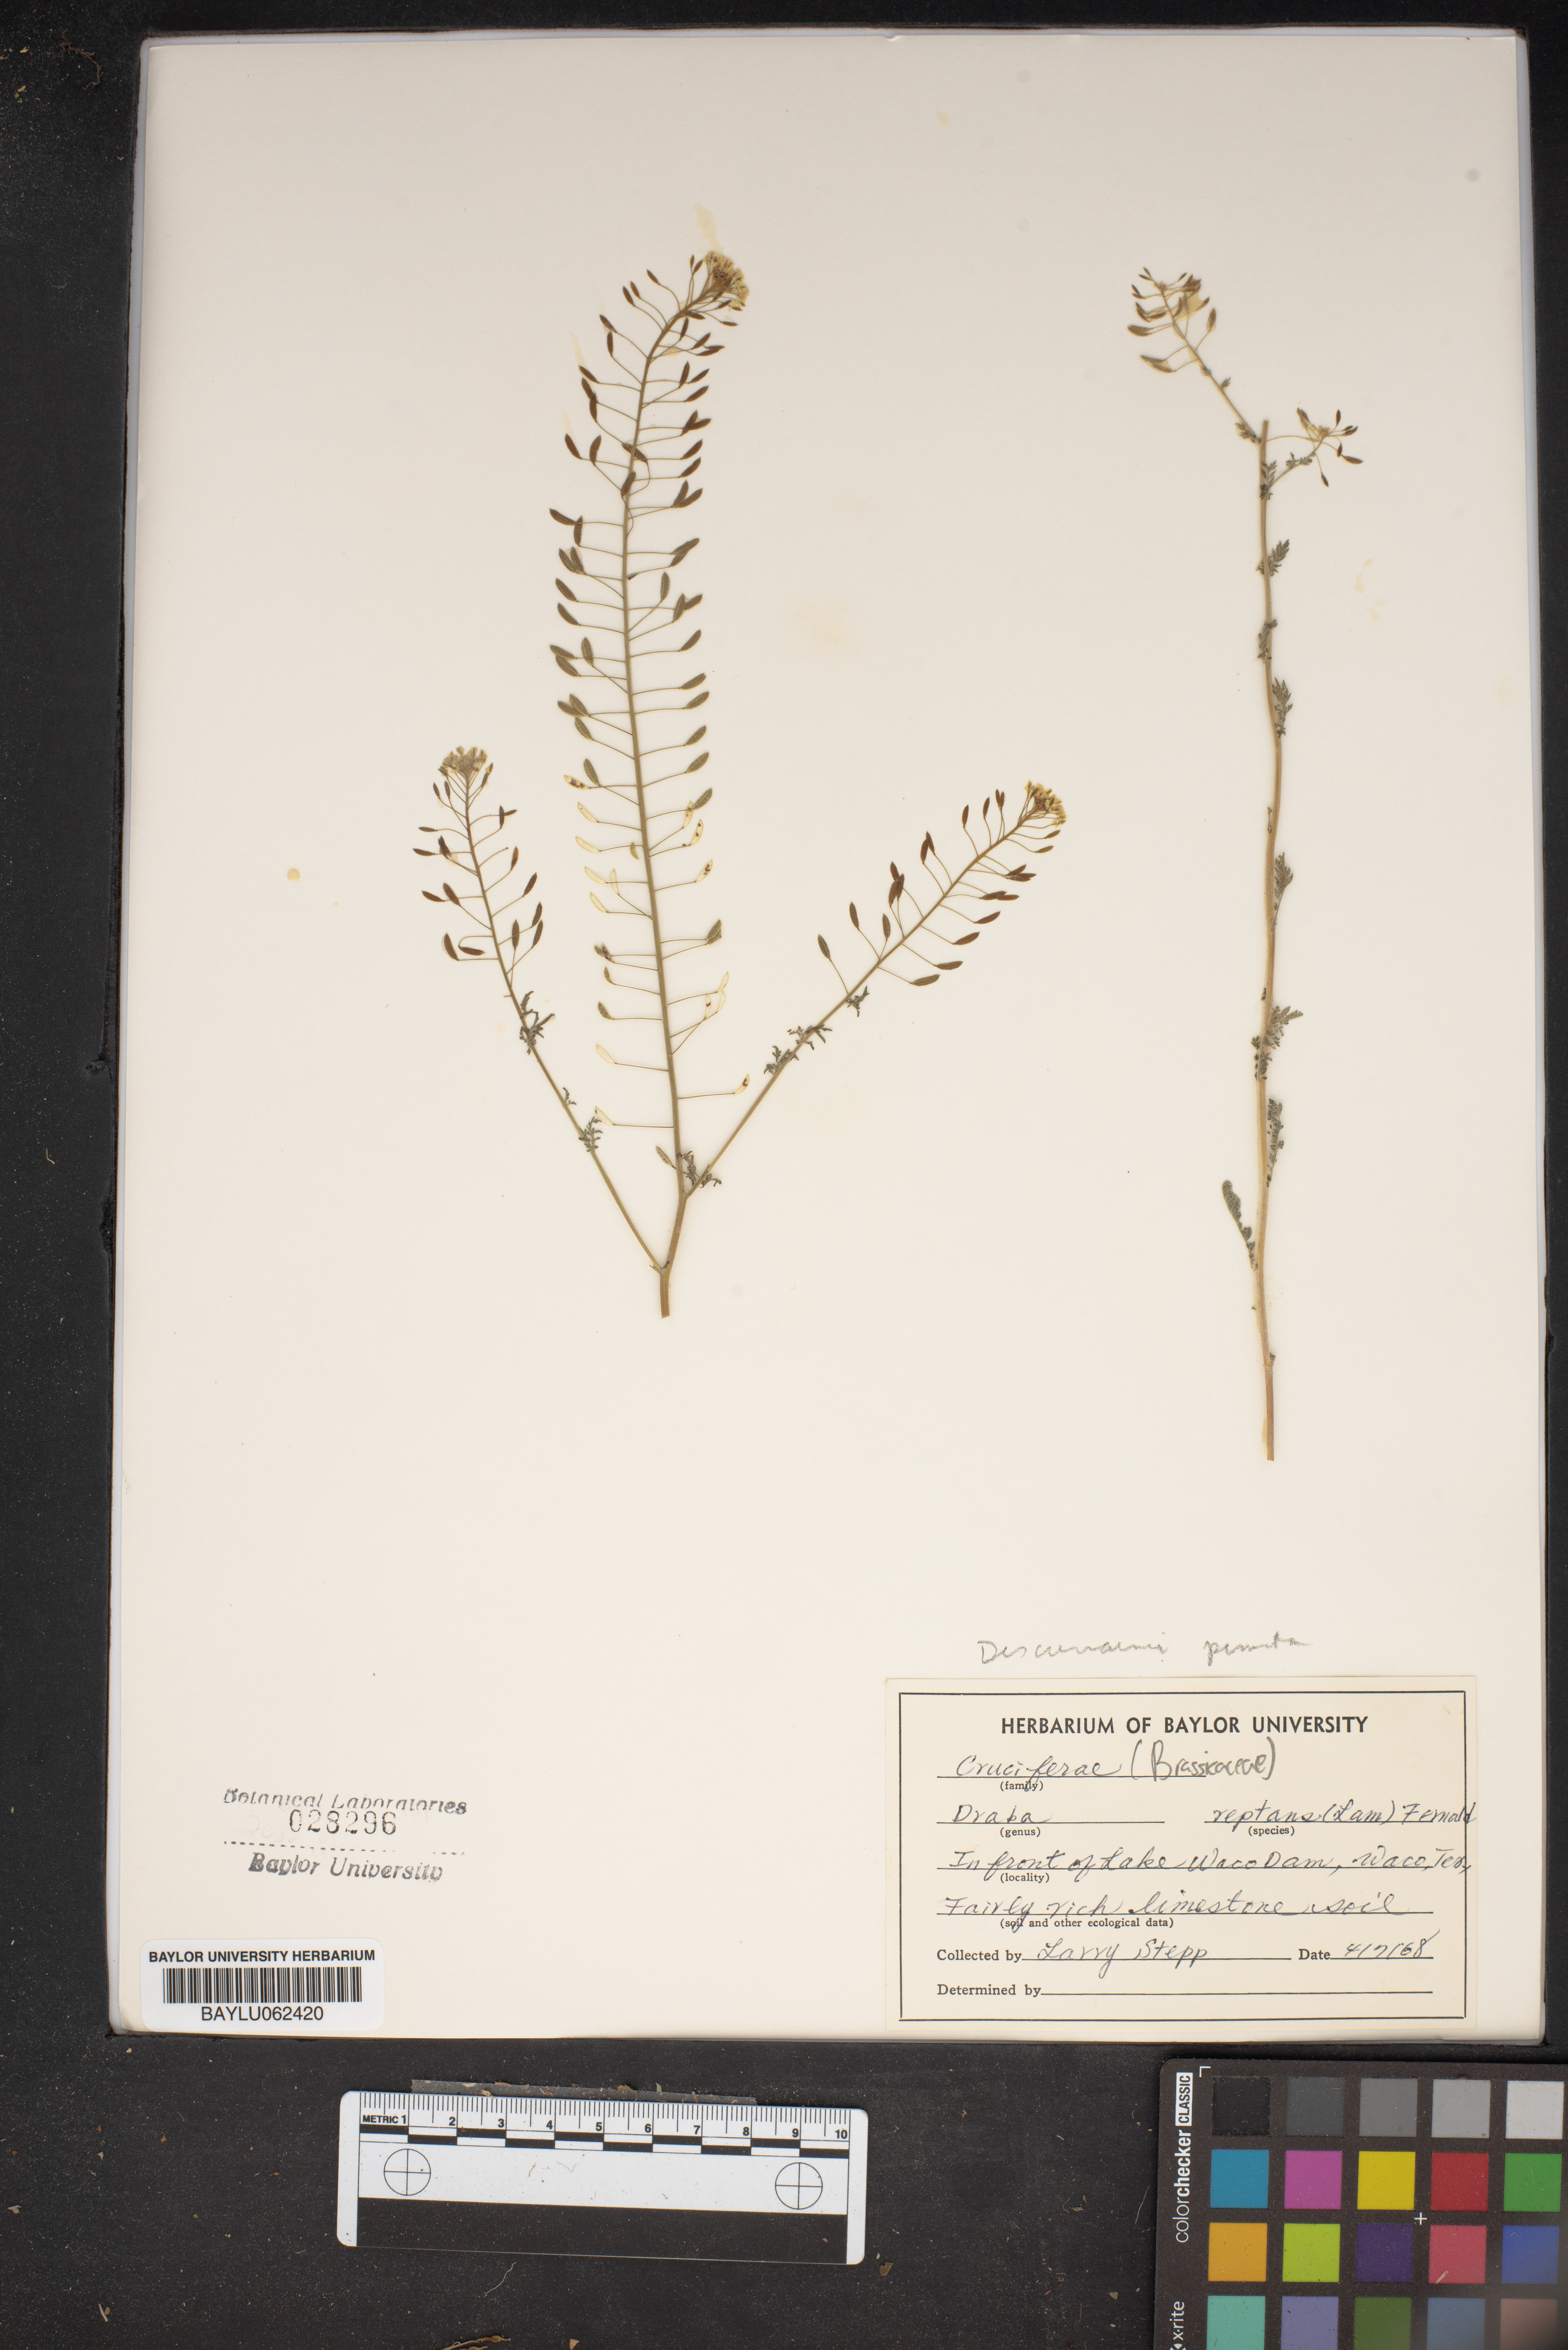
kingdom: Plantae
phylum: Tracheophyta
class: Magnoliopsida
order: Brassicales
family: Brassicaceae
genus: Tomostima
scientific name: Tomostima reptans
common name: Carolina draba
